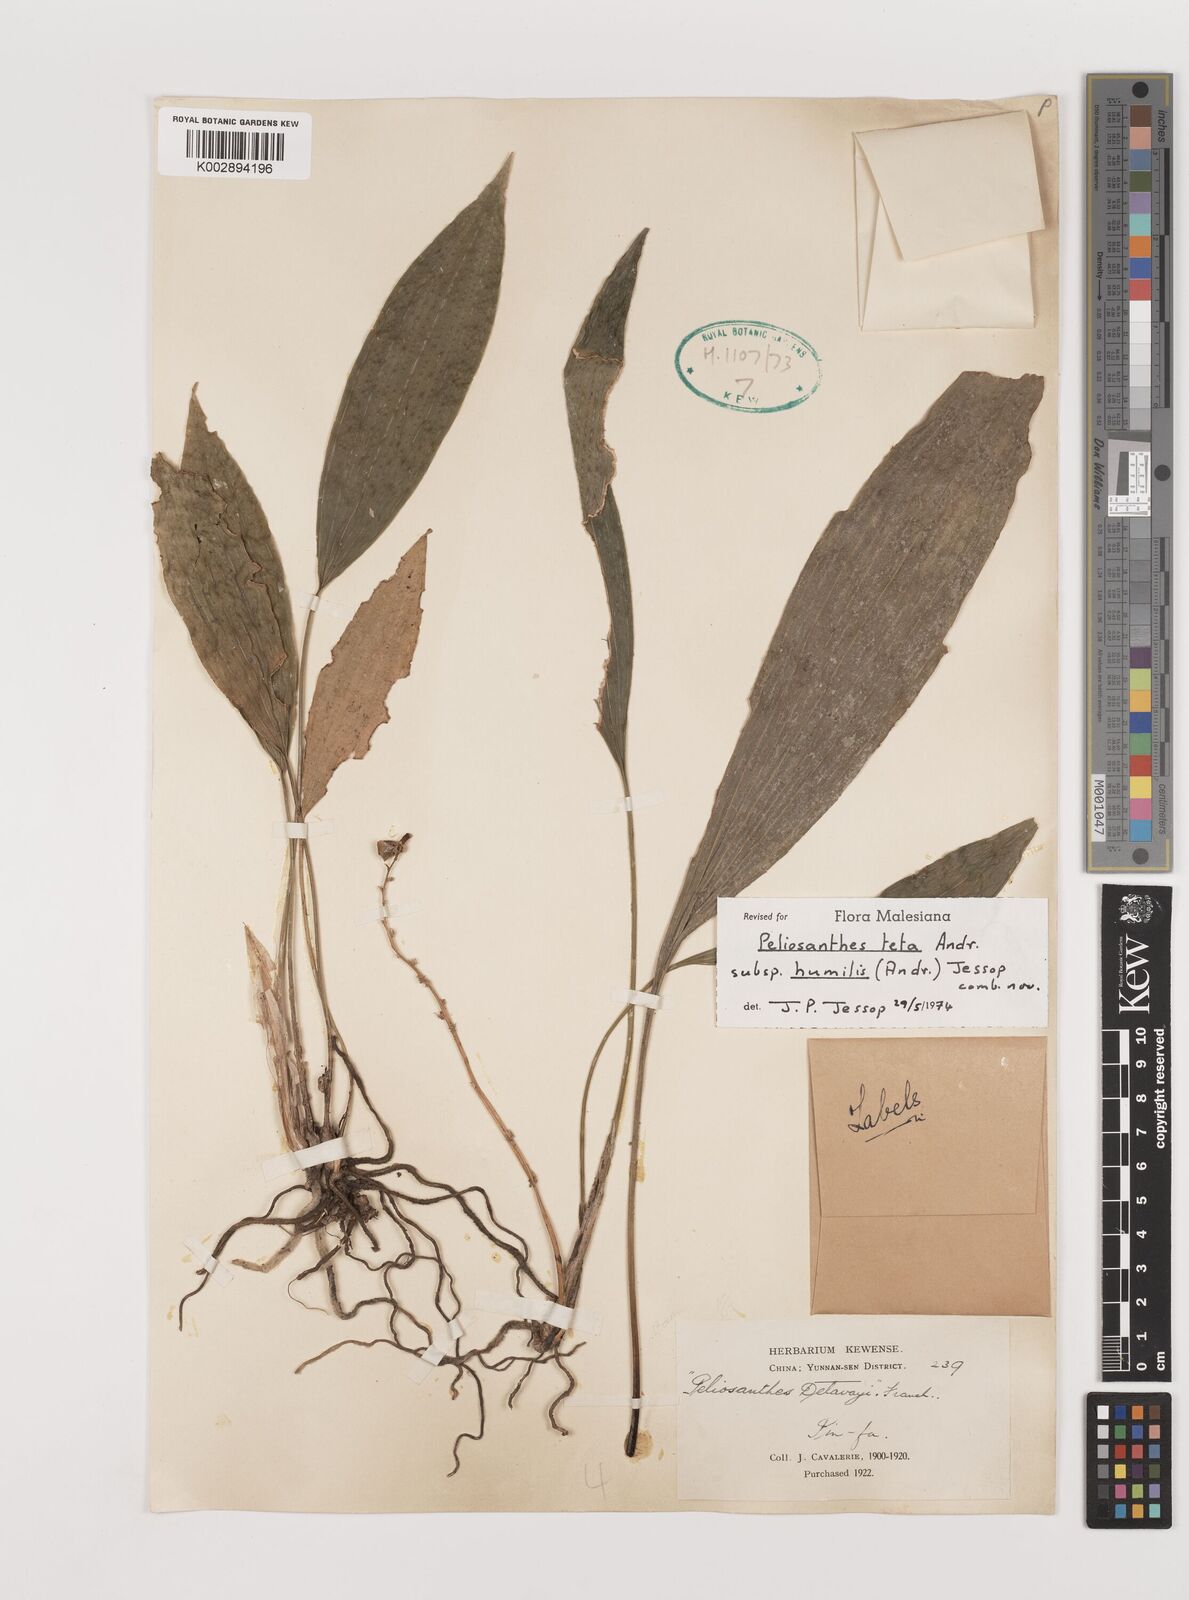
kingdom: Plantae
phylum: Tracheophyta
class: Liliopsida
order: Asparagales
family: Asparagaceae
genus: Peliosanthes
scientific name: Peliosanthes teta
